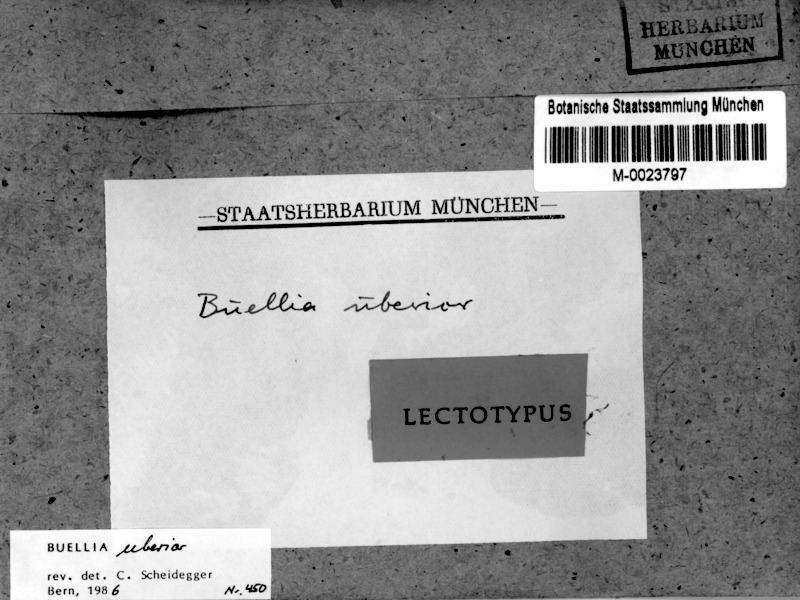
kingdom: Fungi
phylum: Ascomycota
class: Lecanoromycetes
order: Caliciales
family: Caliciaceae
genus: Buellia
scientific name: Buellia uberior
